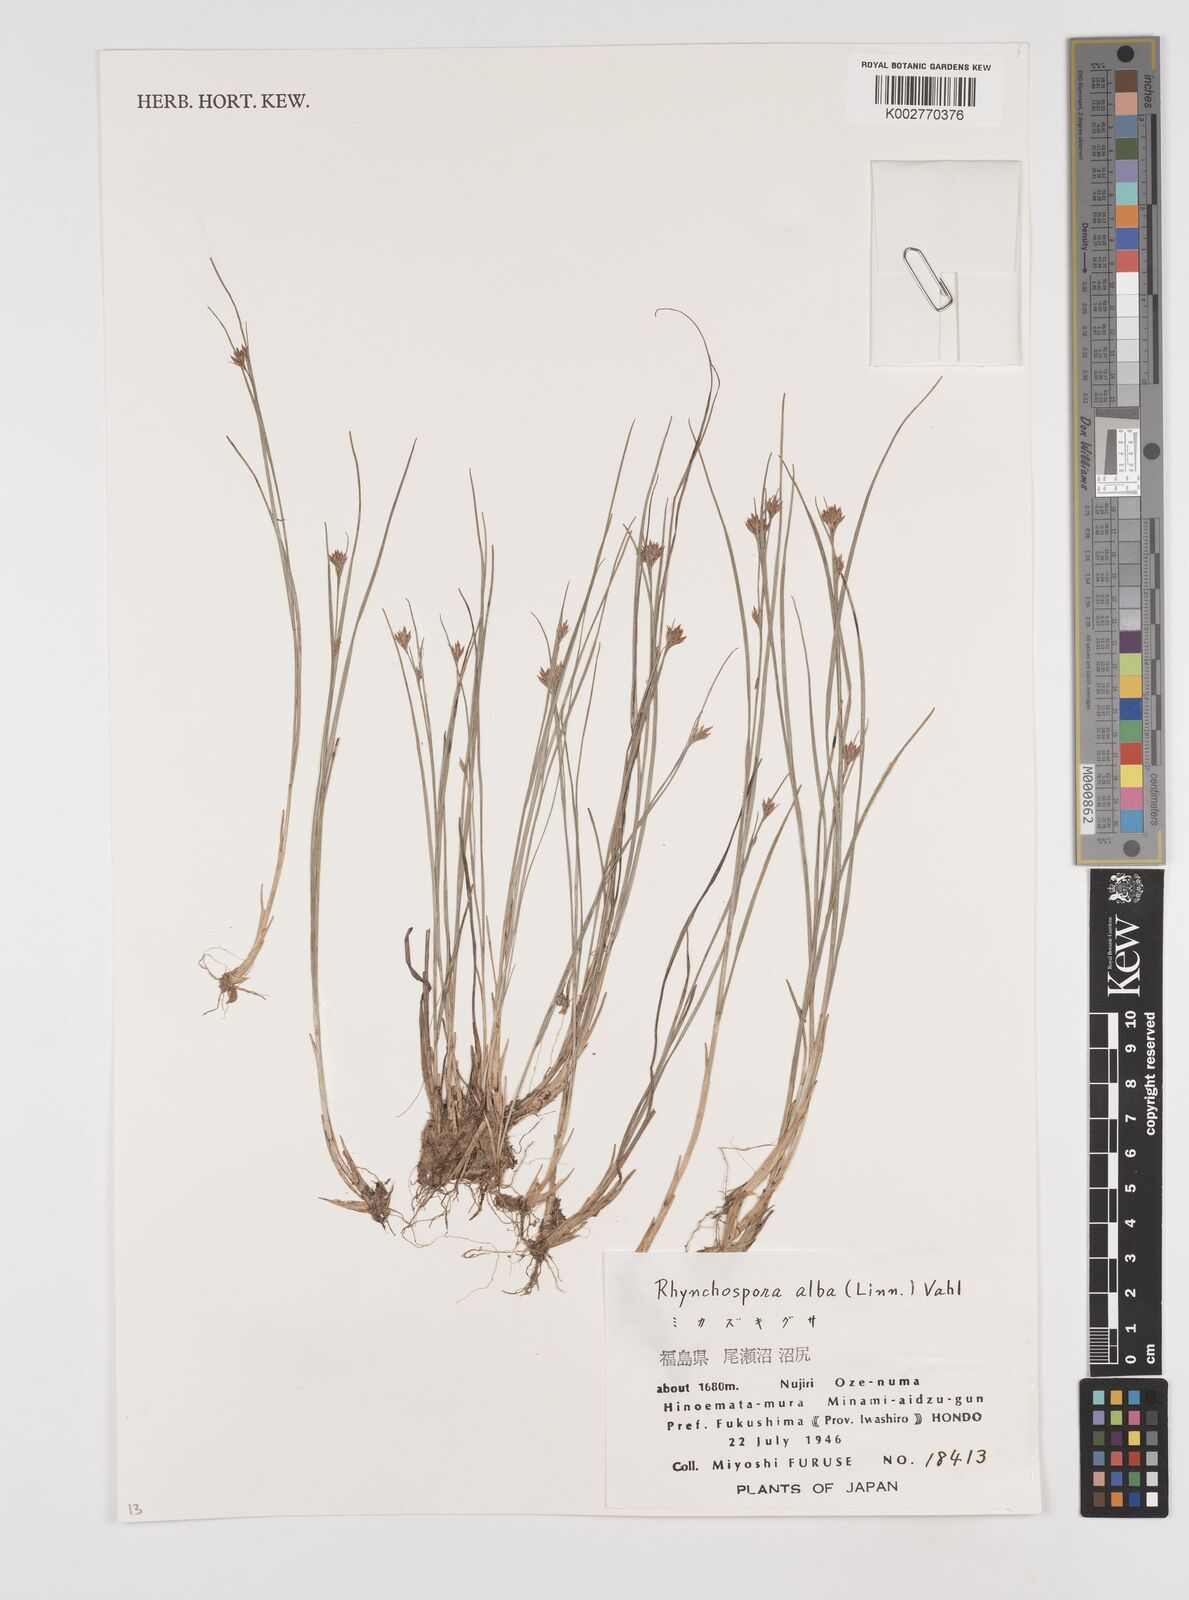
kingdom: Plantae
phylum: Tracheophyta
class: Liliopsida
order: Poales
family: Cyperaceae
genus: Rhynchospora
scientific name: Rhynchospora alba
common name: White beak-sedge
